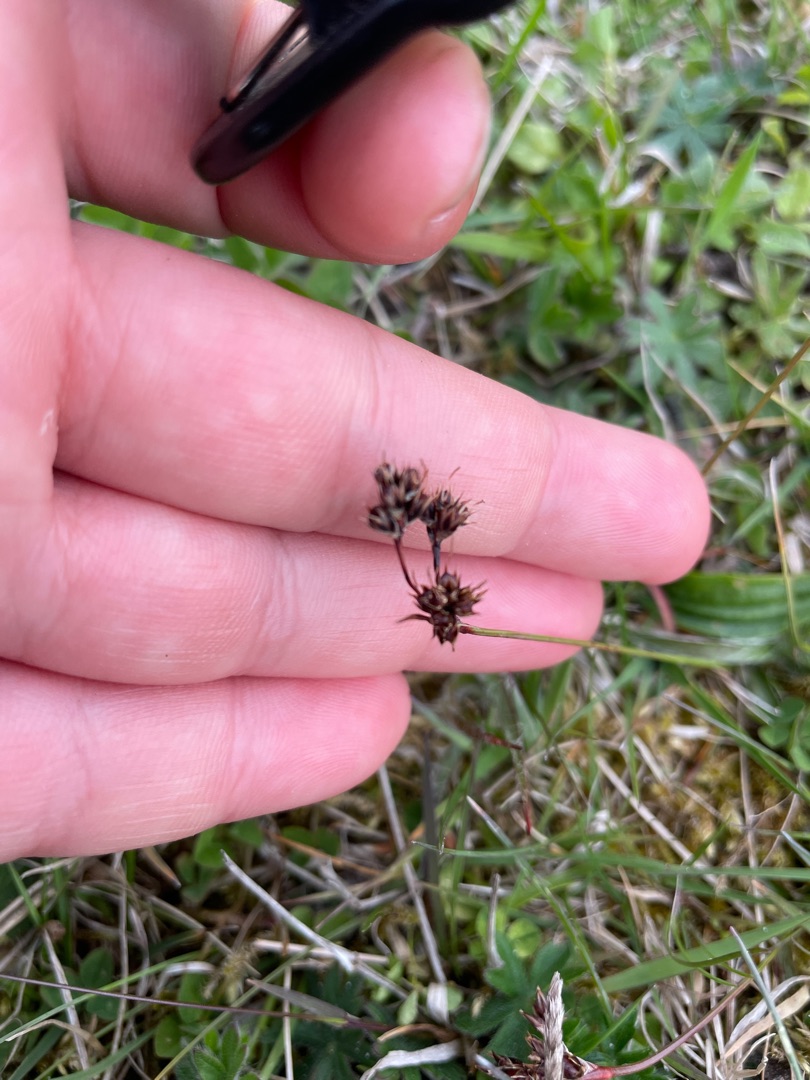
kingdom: Plantae
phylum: Tracheophyta
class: Liliopsida
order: Poales
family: Juncaceae
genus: Luzula
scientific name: Luzula campestris
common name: Mark-frytle
